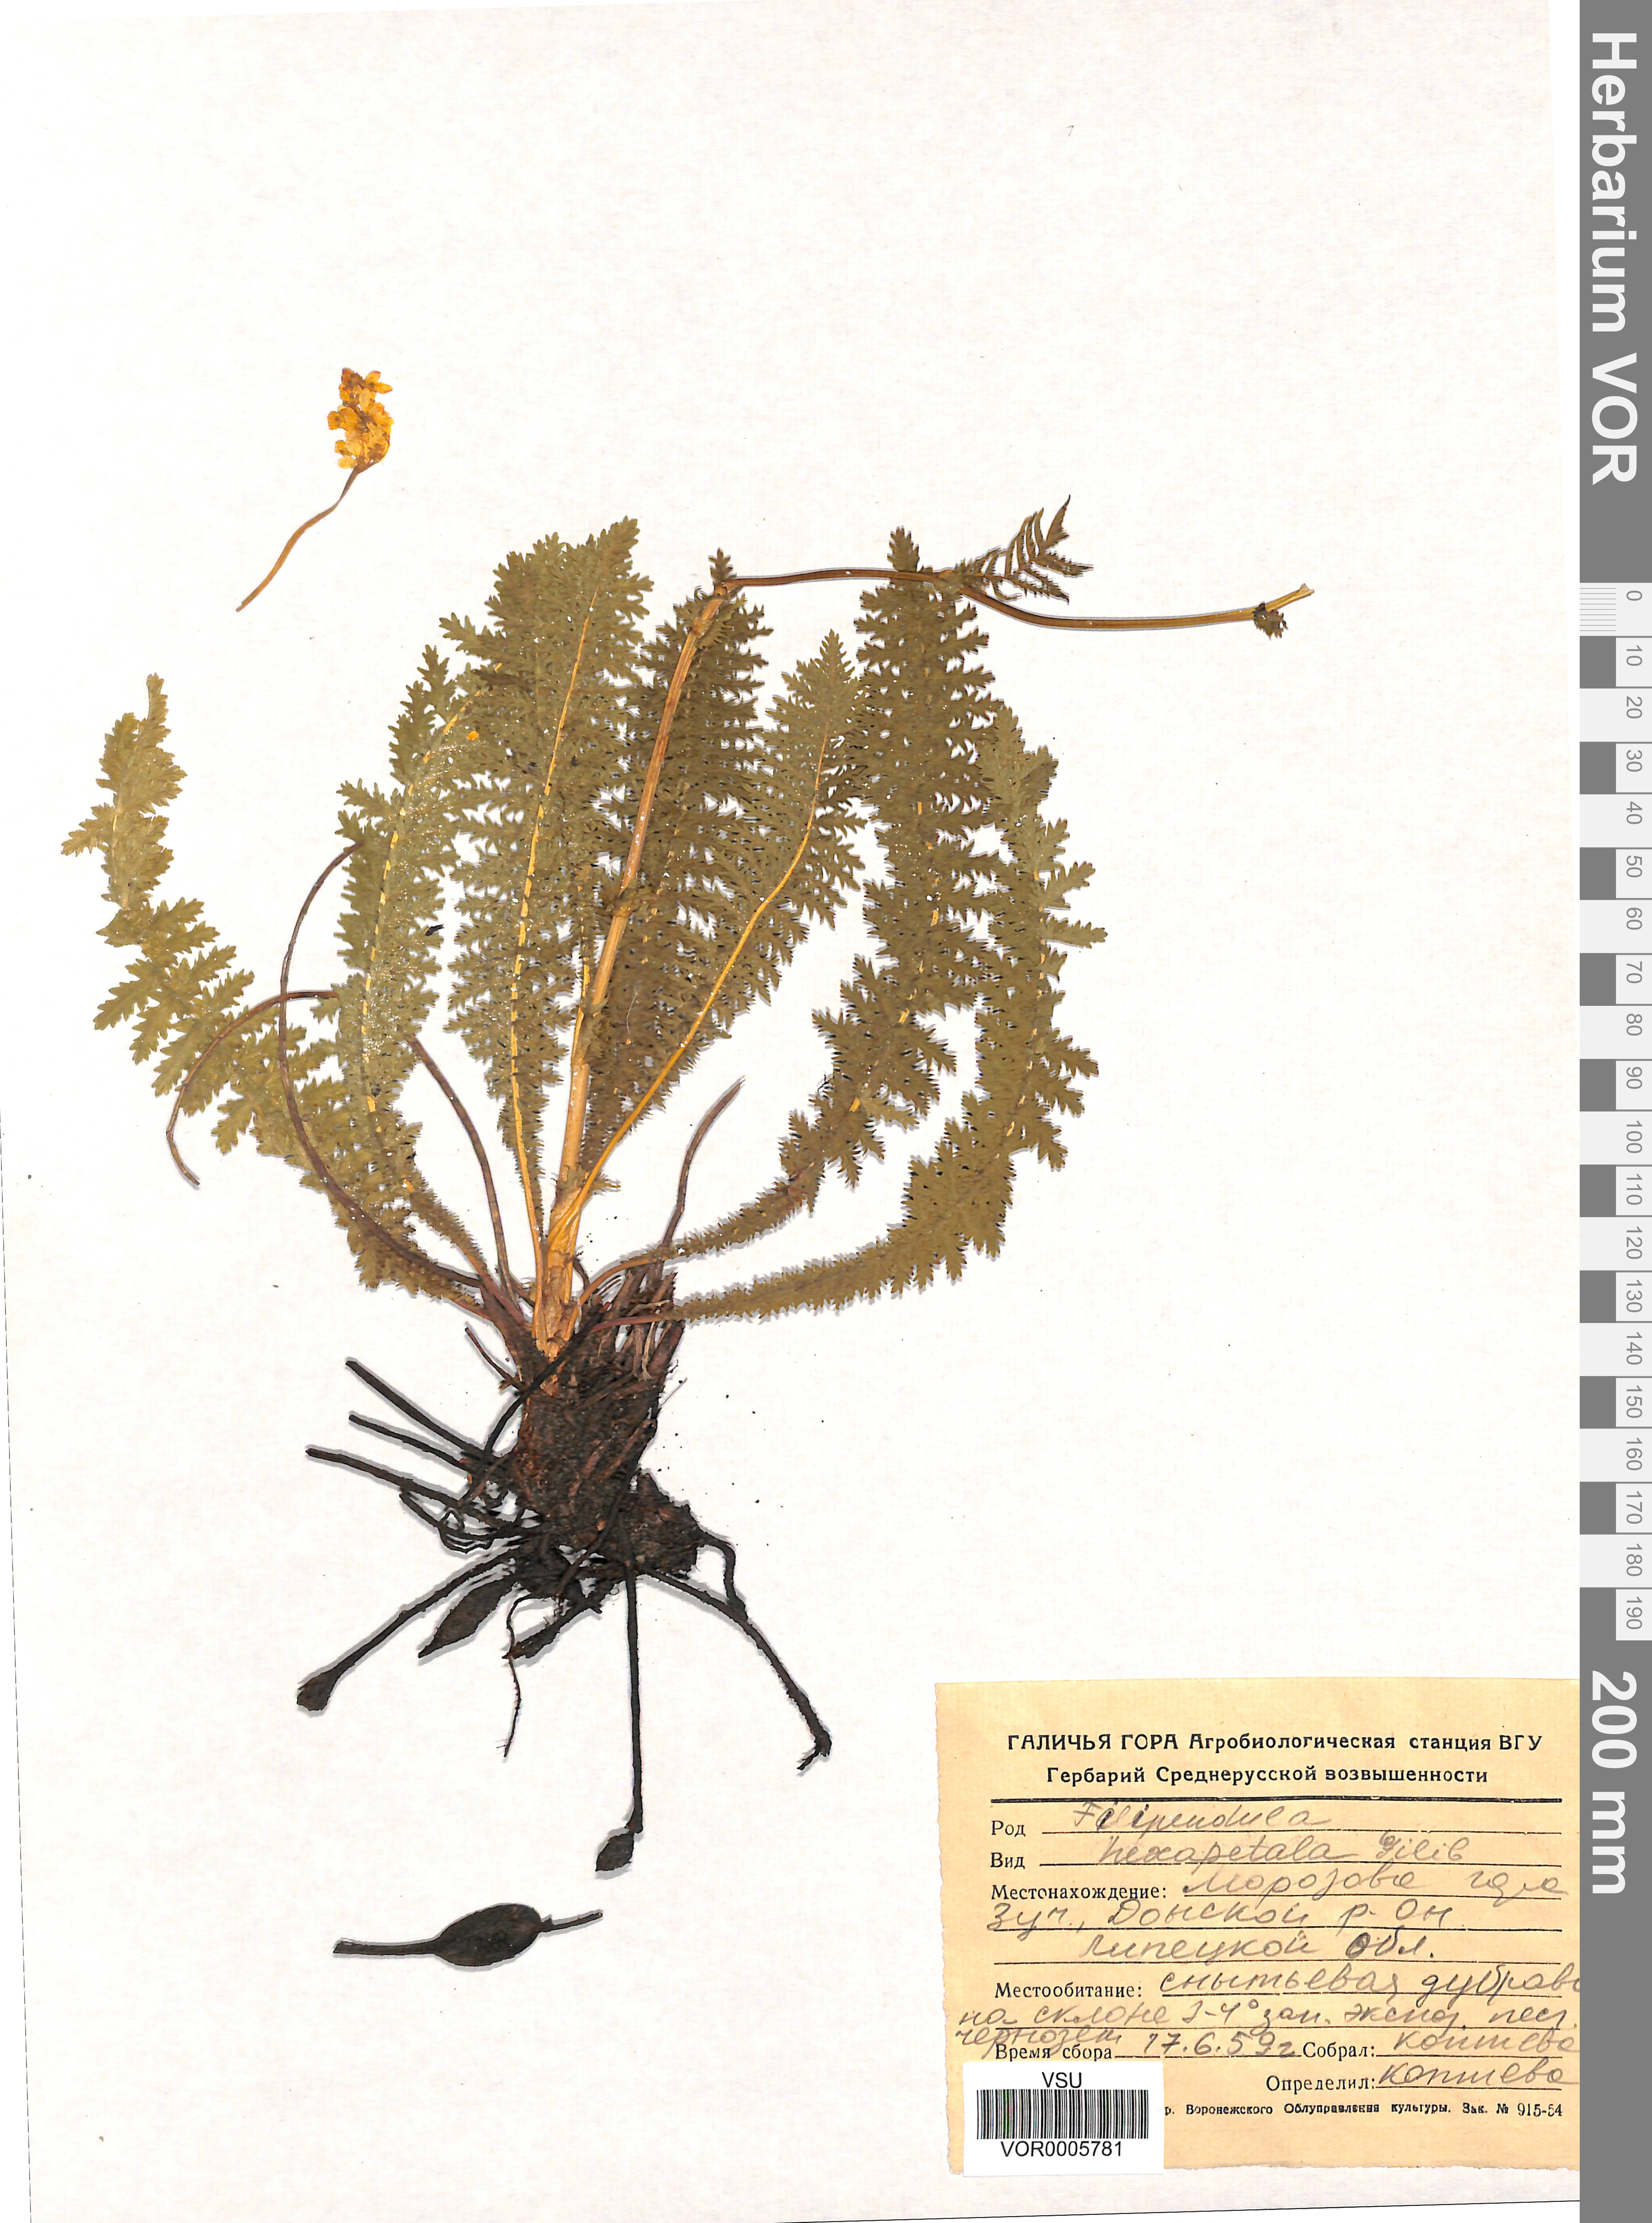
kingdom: Plantae
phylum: Tracheophyta
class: Magnoliopsida
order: Rosales
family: Rosaceae
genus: Filipendula
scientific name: Filipendula vulgaris
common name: Dropwort
